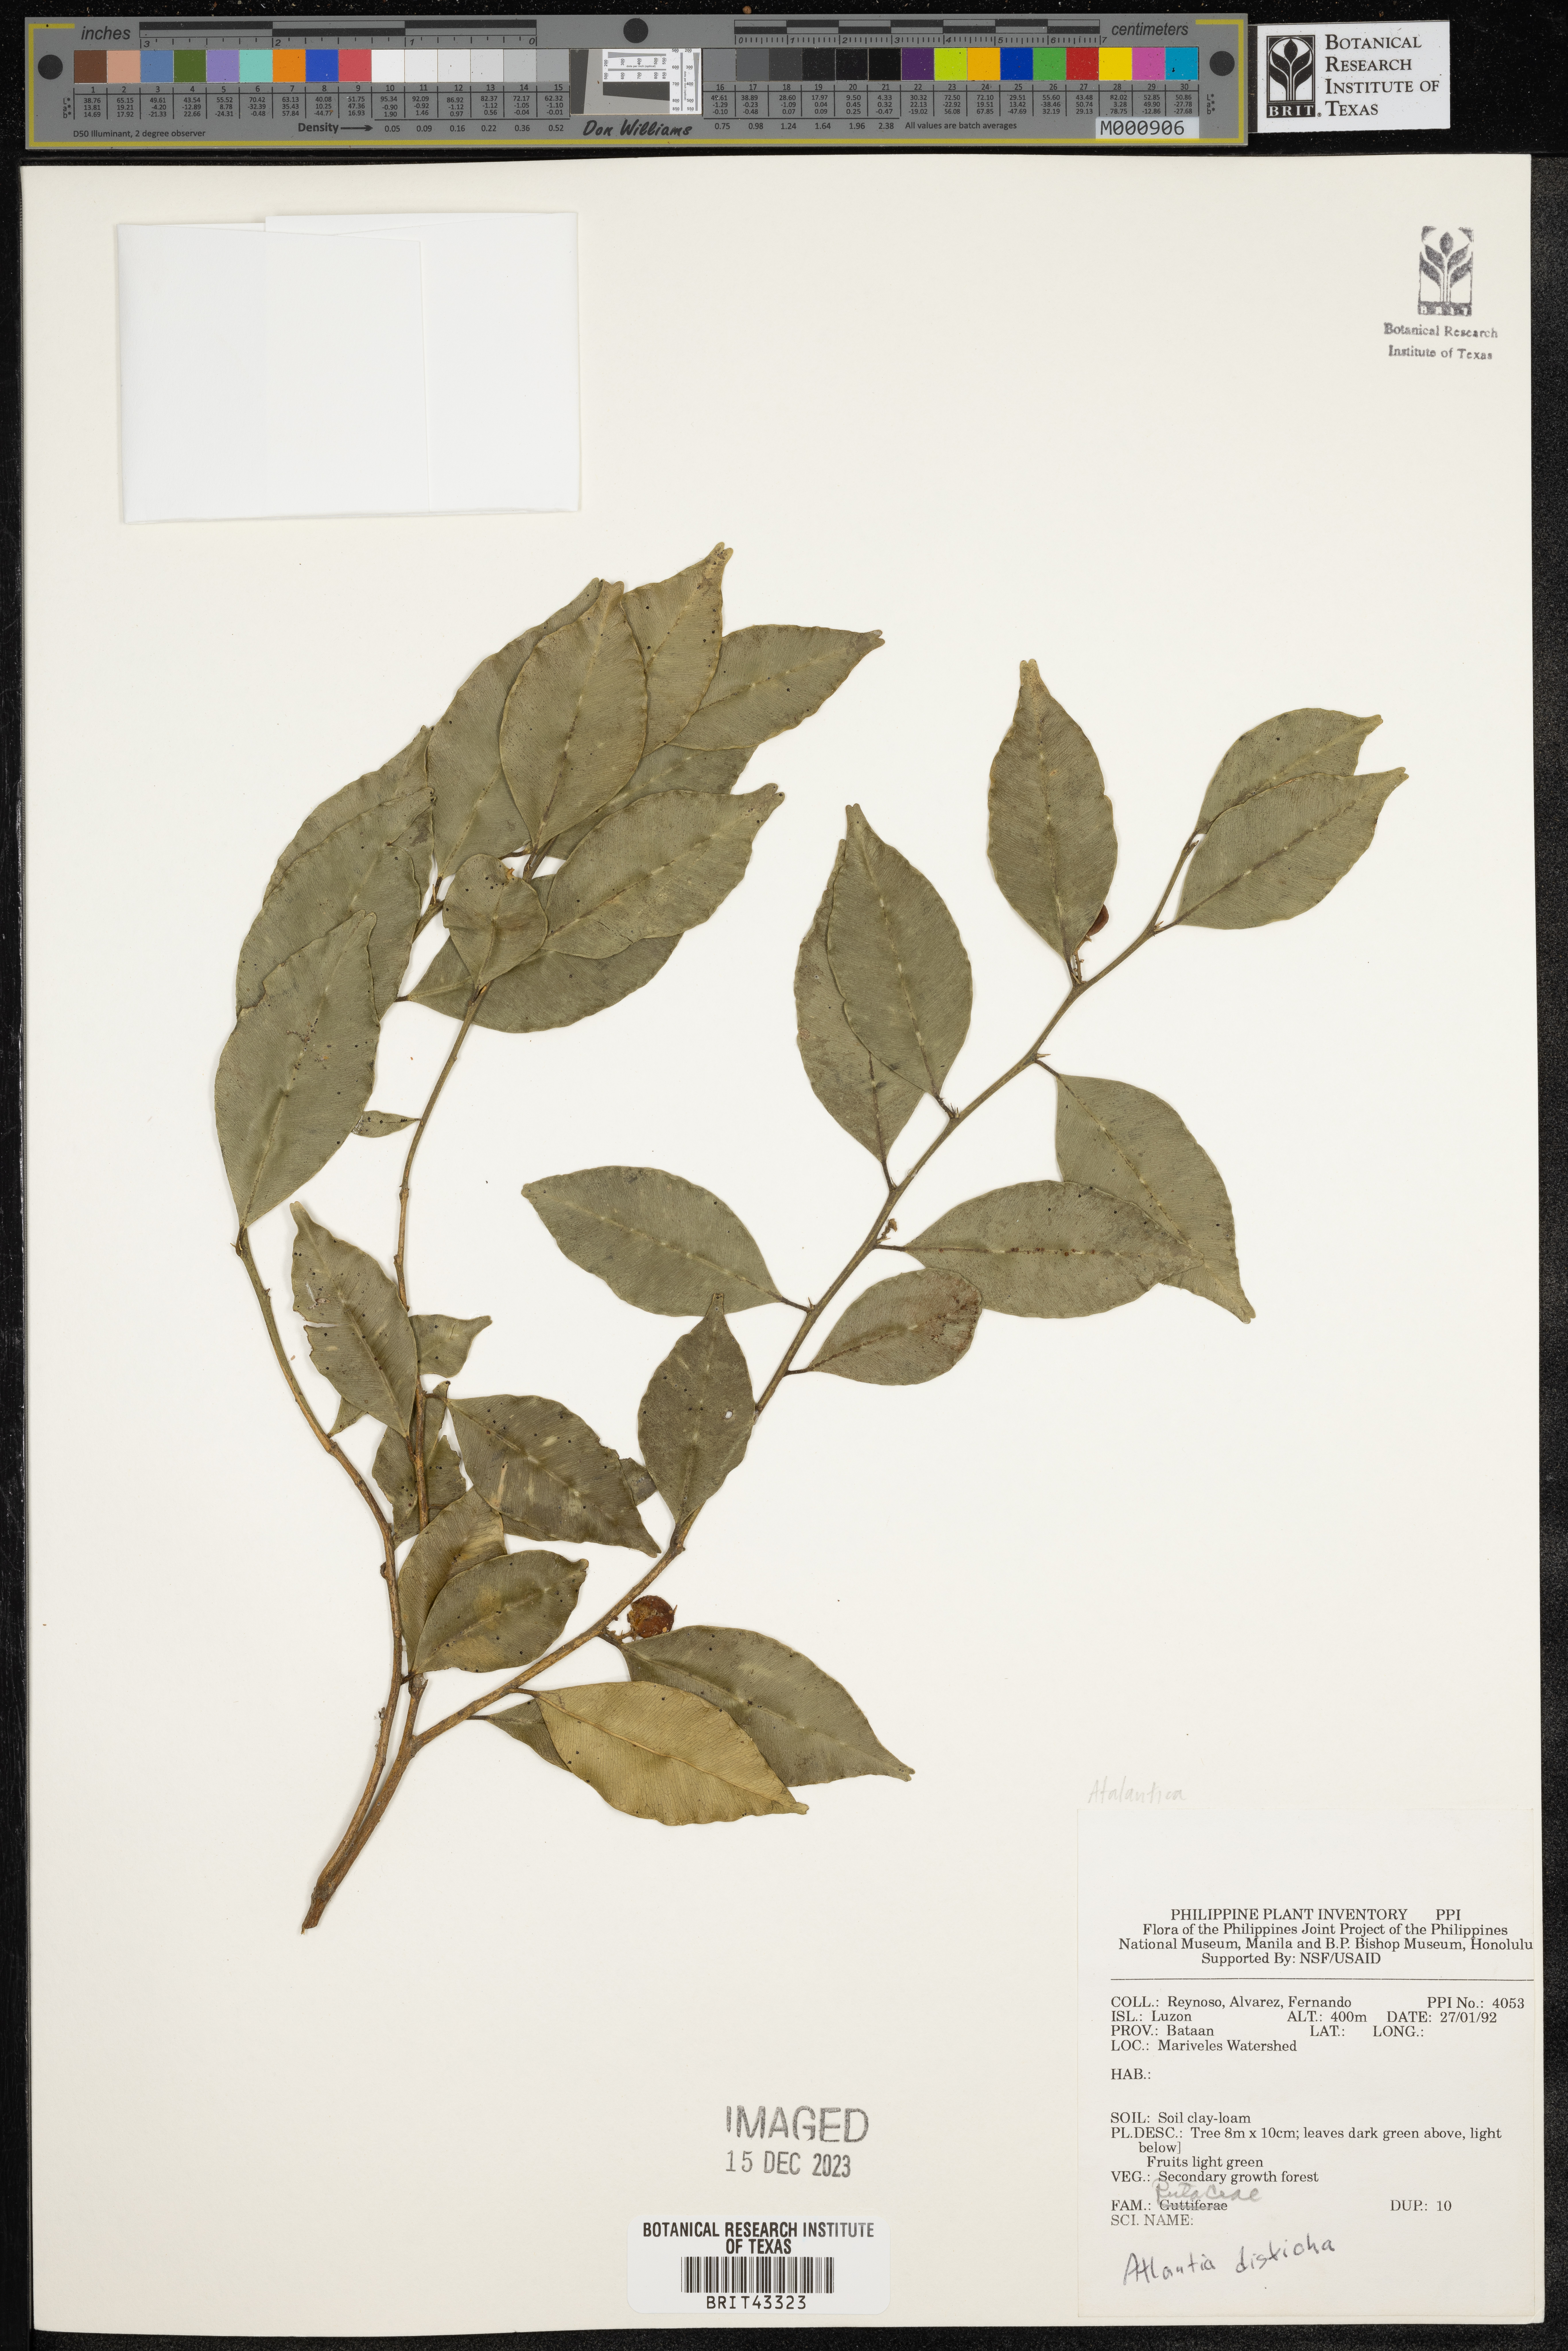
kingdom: Plantae
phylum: Tracheophyta
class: Magnoliopsida
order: Sapindales
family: Rutaceae
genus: Atalantia
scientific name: Atalantia
